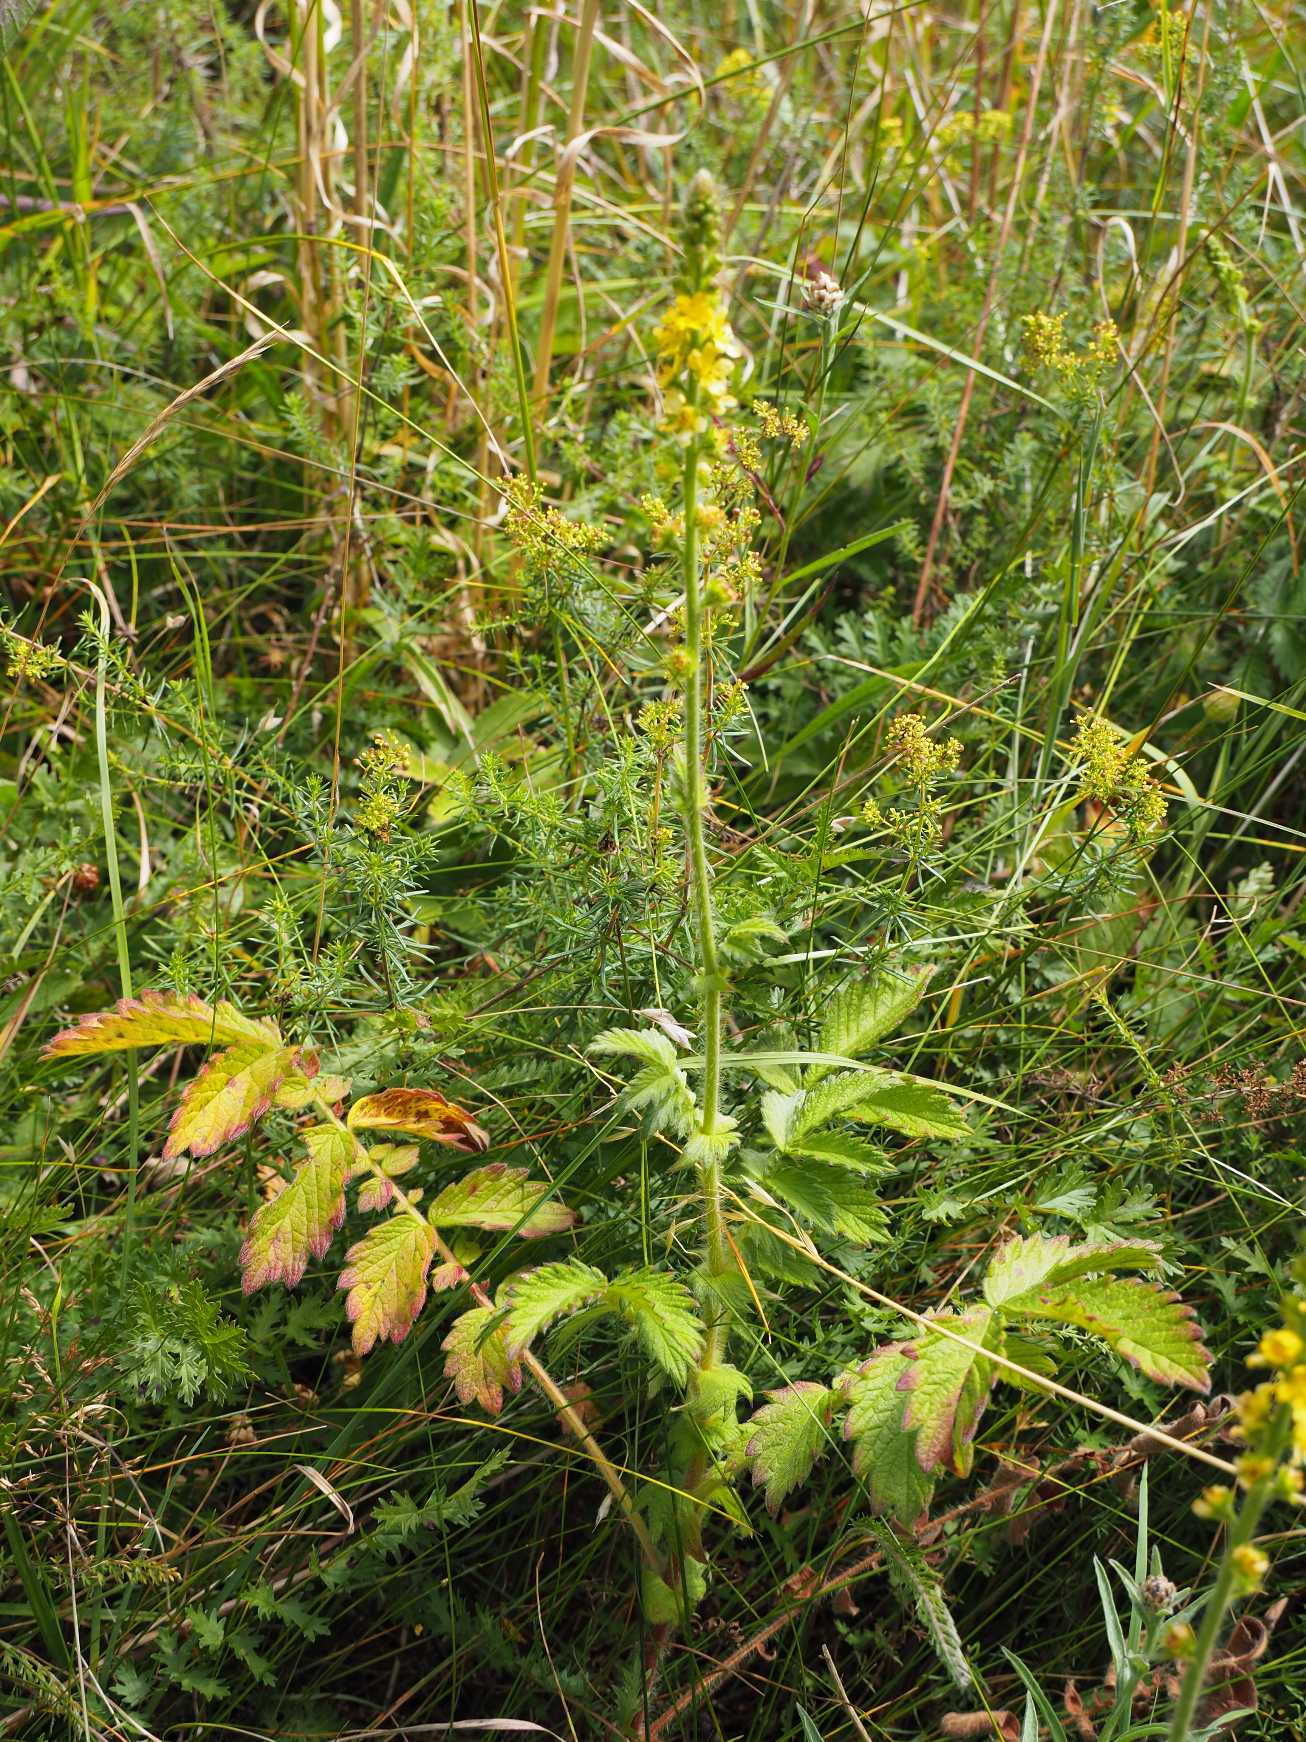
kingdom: Plantae
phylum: Tracheophyta
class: Magnoliopsida
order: Rosales
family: Rosaceae
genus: Agrimonia
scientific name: Agrimonia eupatoria
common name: Almindelig agermåne
